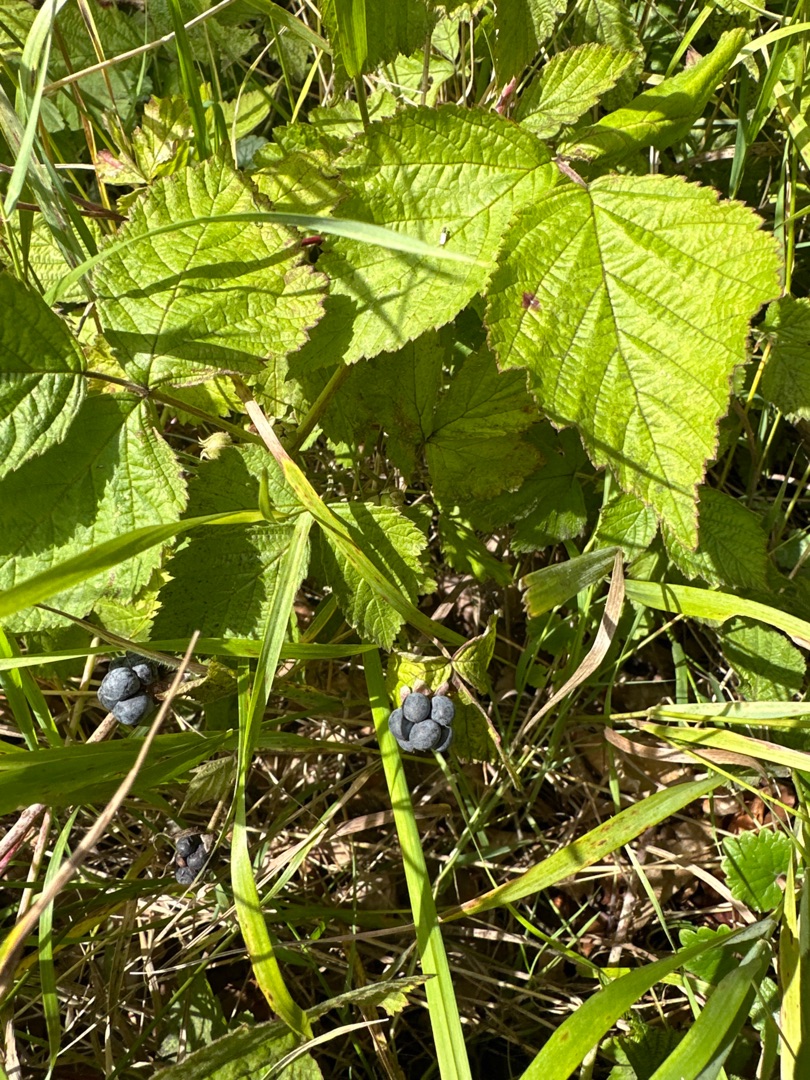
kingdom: Plantae
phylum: Tracheophyta
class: Magnoliopsida
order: Rosales
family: Rosaceae
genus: Rubus
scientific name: Rubus caesius
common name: Korbær
